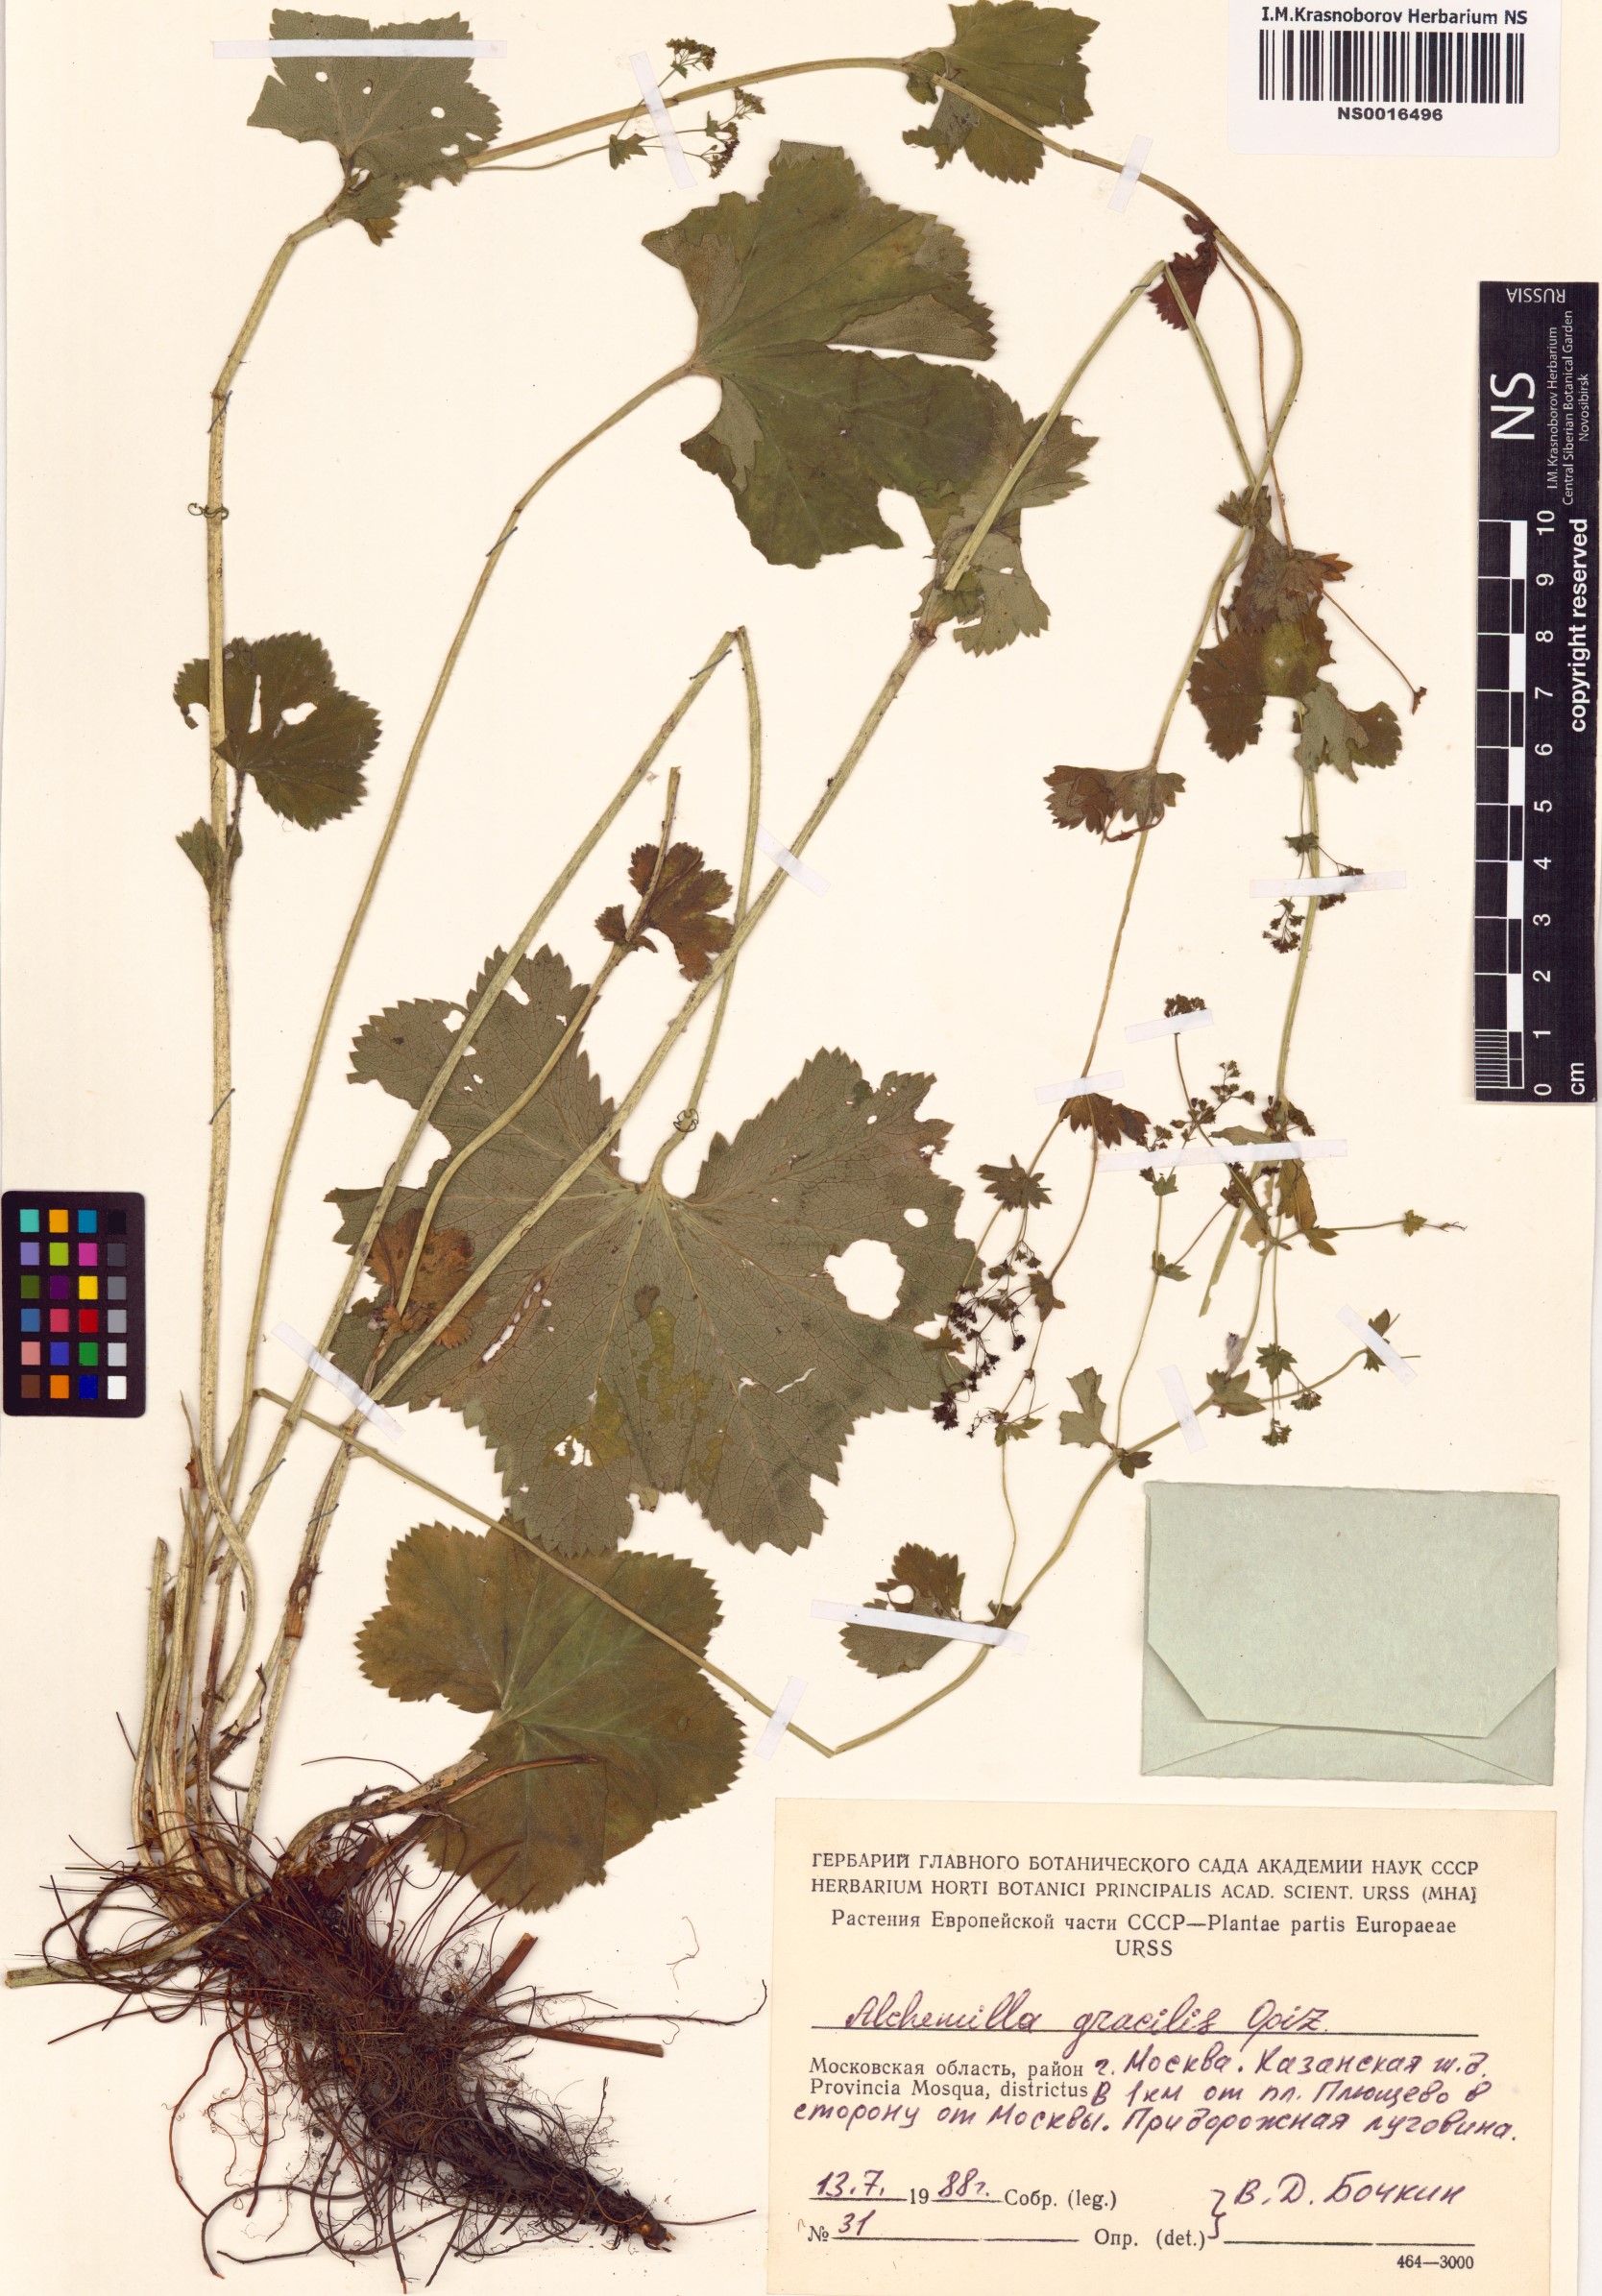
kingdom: Plantae
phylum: Tracheophyta
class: Magnoliopsida
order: Rosales
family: Rosaceae
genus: Alchemilla
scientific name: Alchemilla monticola
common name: Hairy lady's mantle
